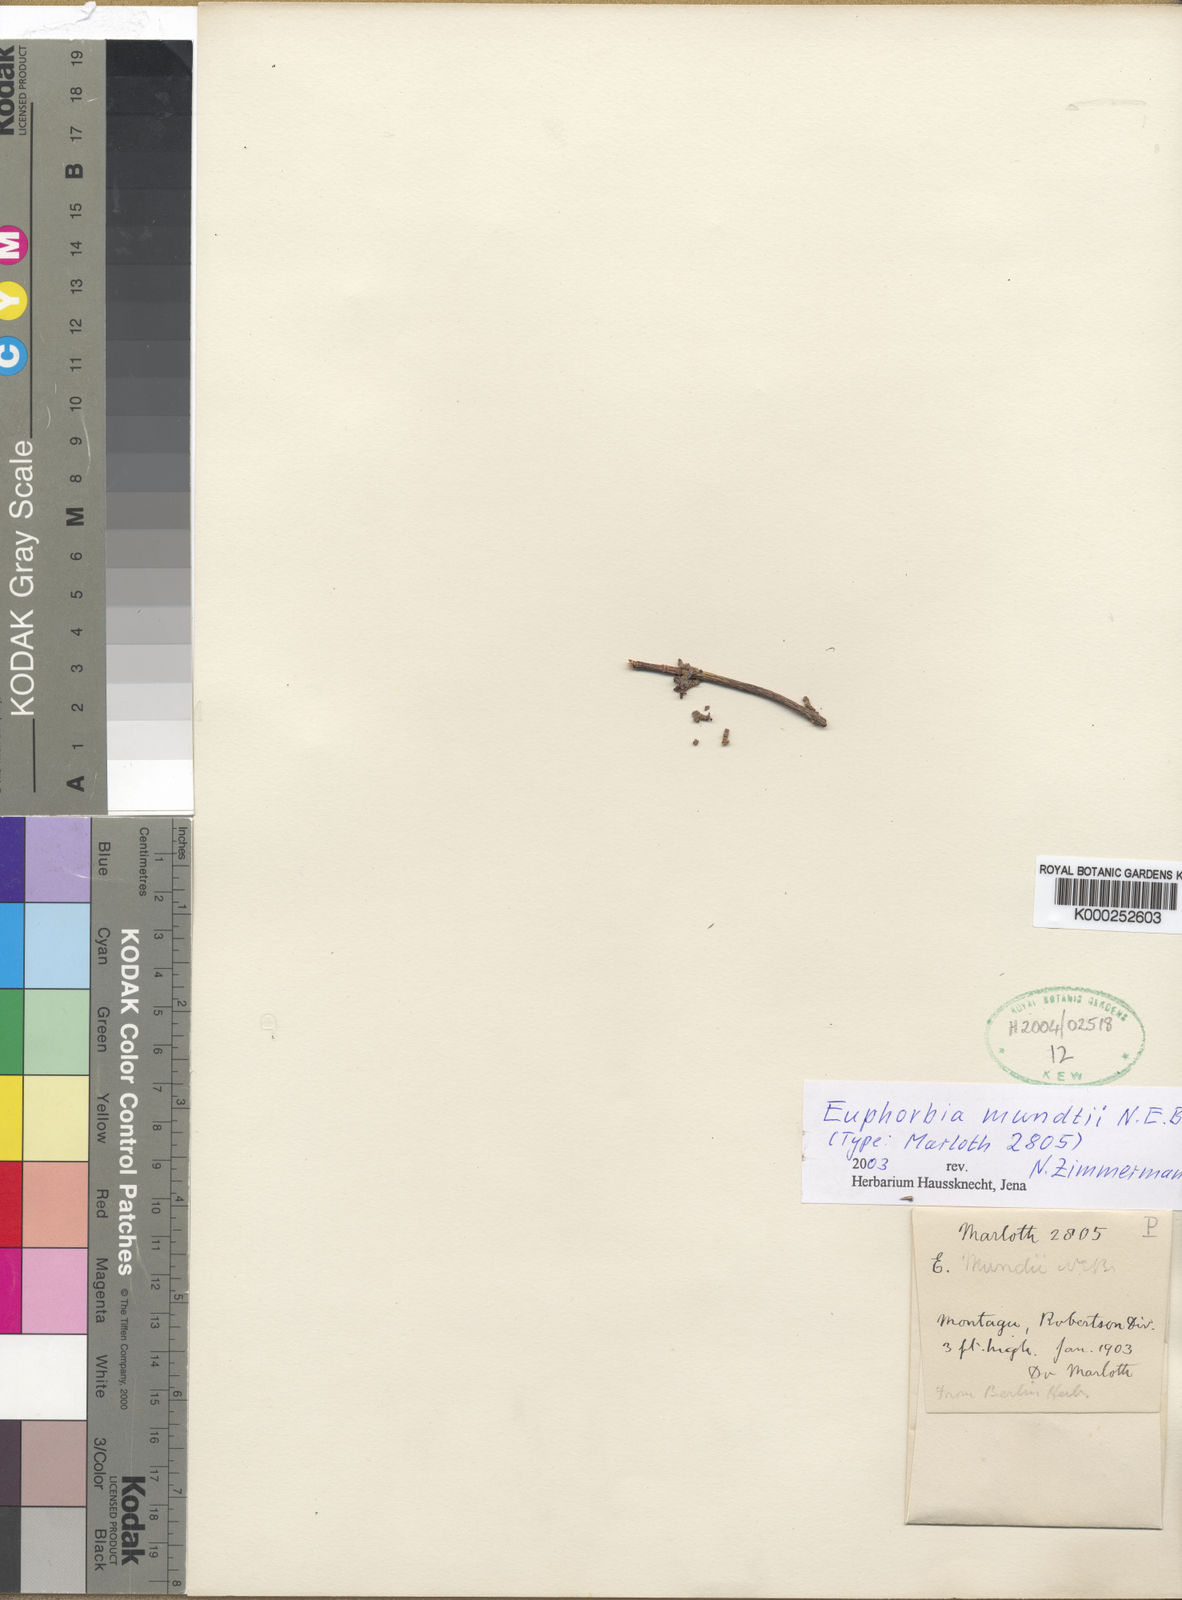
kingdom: Plantae
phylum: Tracheophyta
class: Magnoliopsida
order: Malpighiales
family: Euphorbiaceae
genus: Euphorbia
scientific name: Euphorbia rhombifolia
